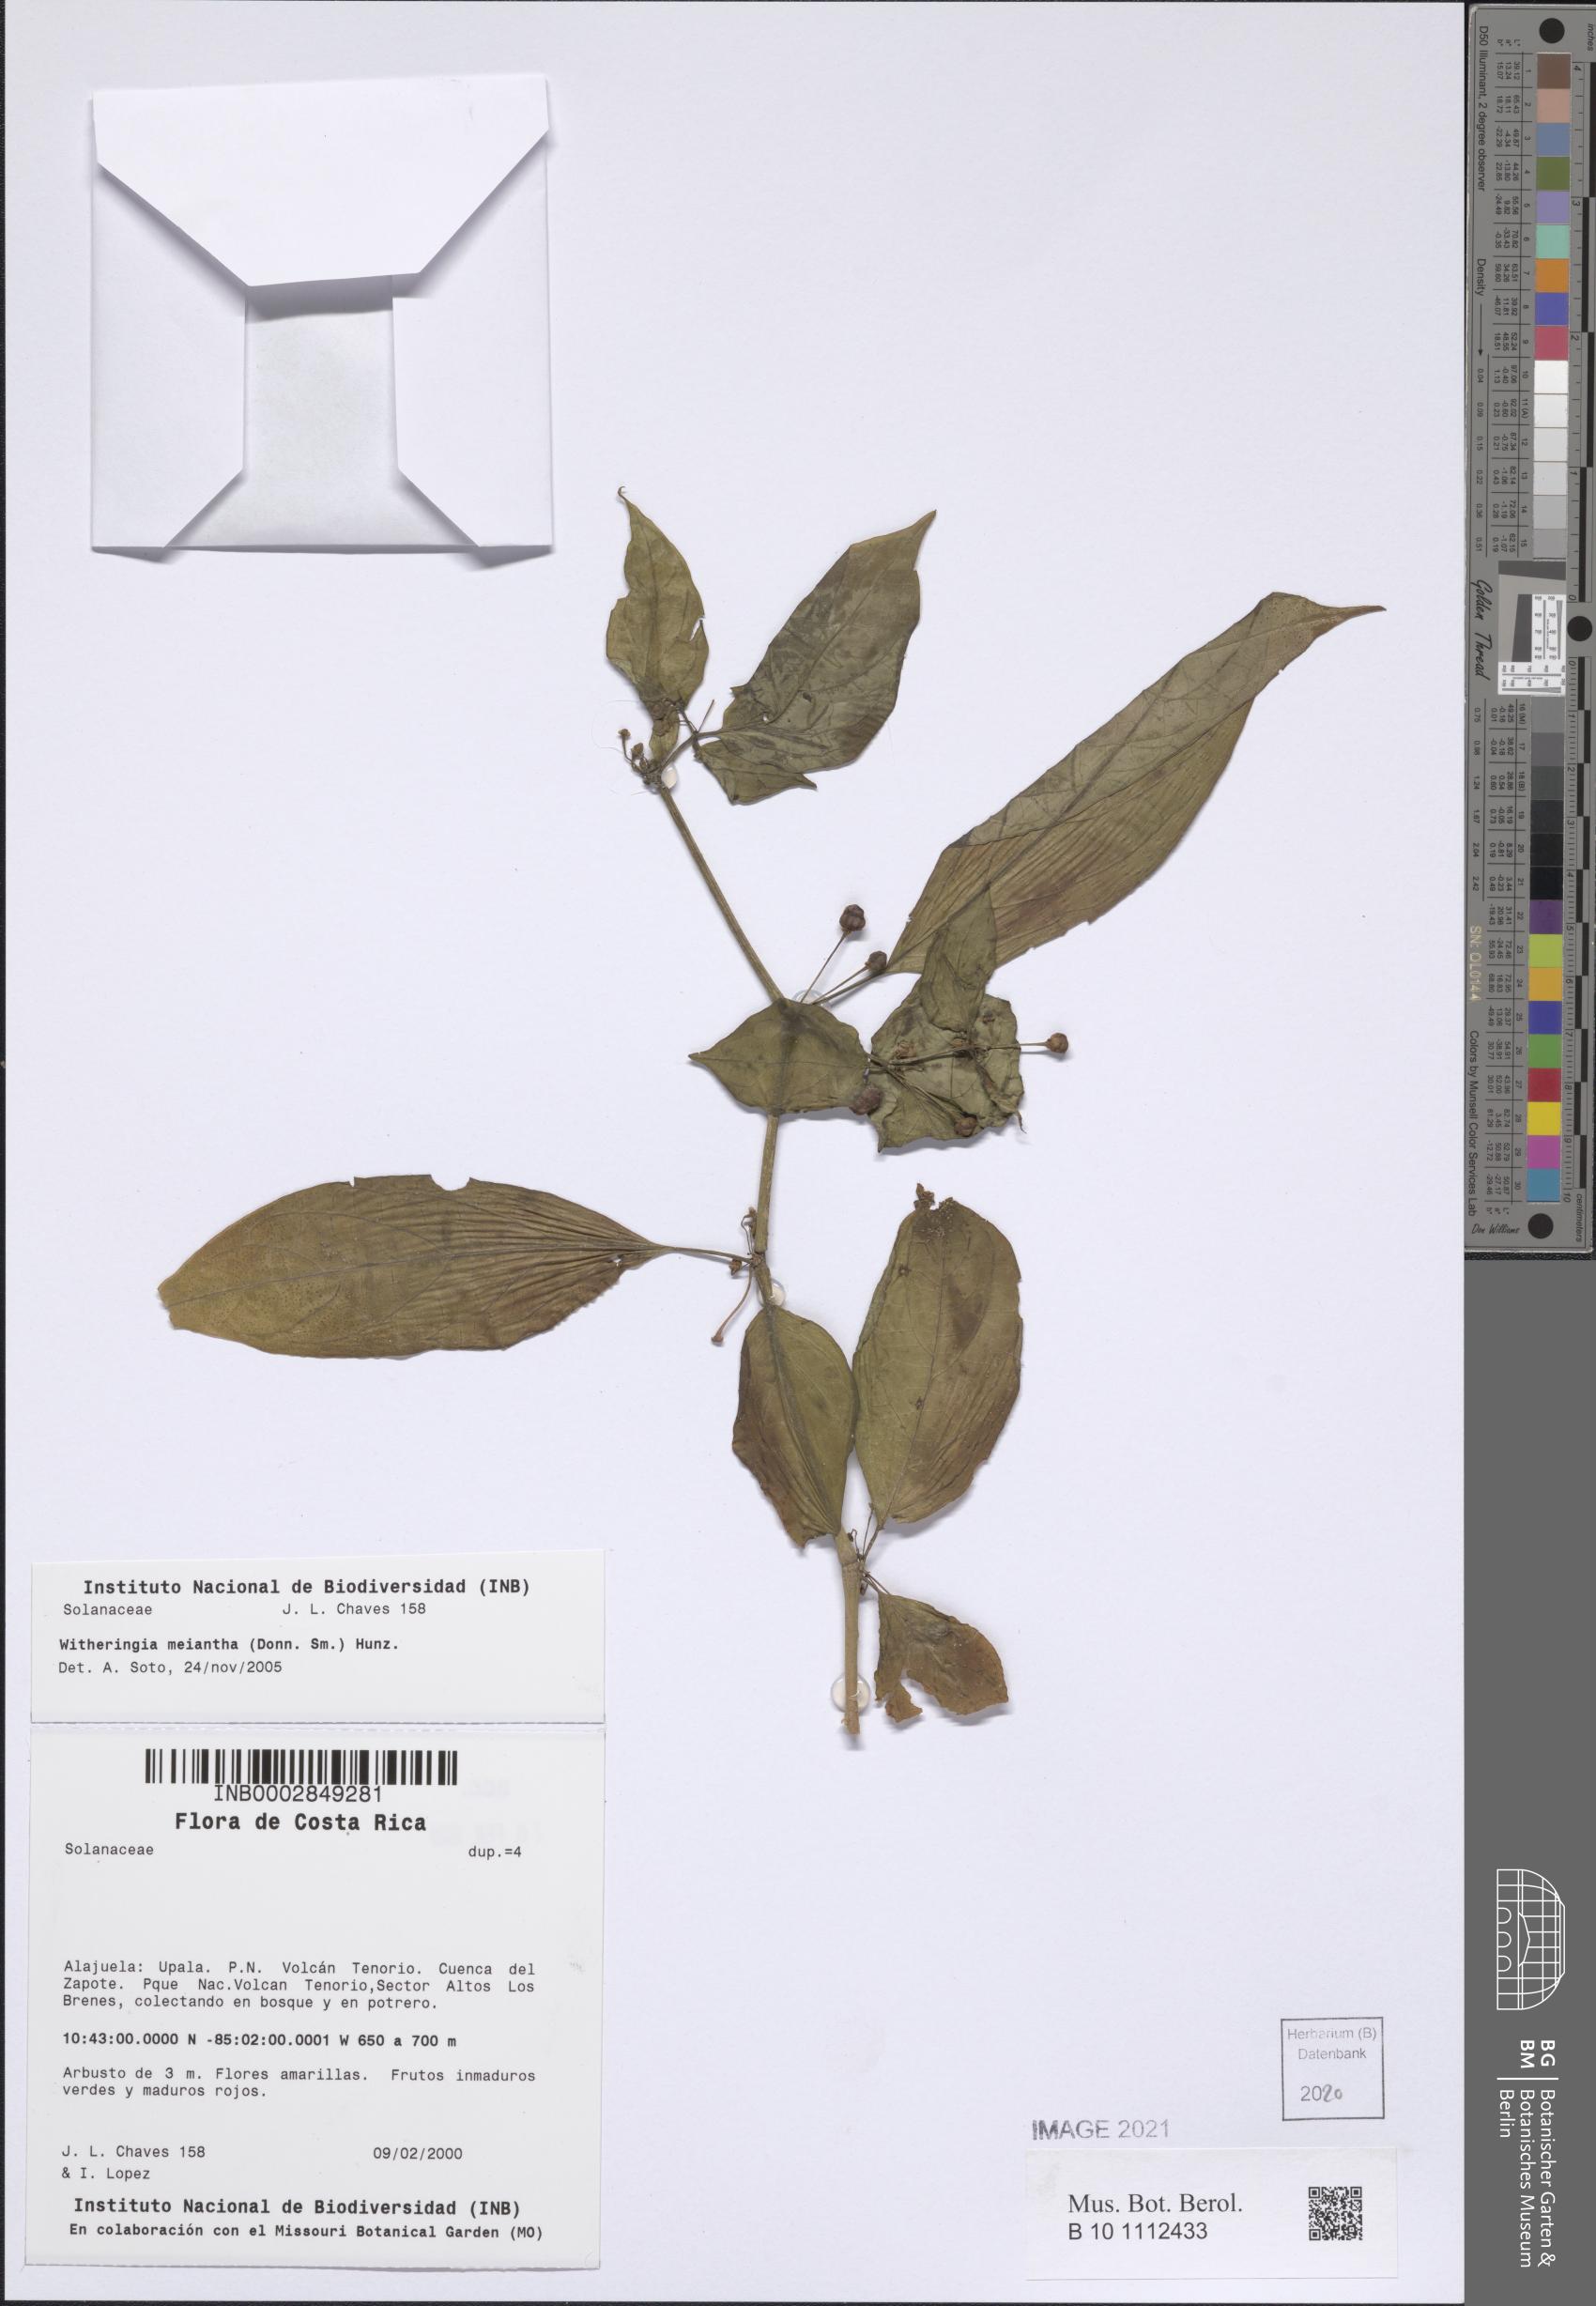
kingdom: Plantae
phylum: Tracheophyta
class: Magnoliopsida
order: Solanales
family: Solanaceae
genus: Witheringia
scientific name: Witheringia meiantha
